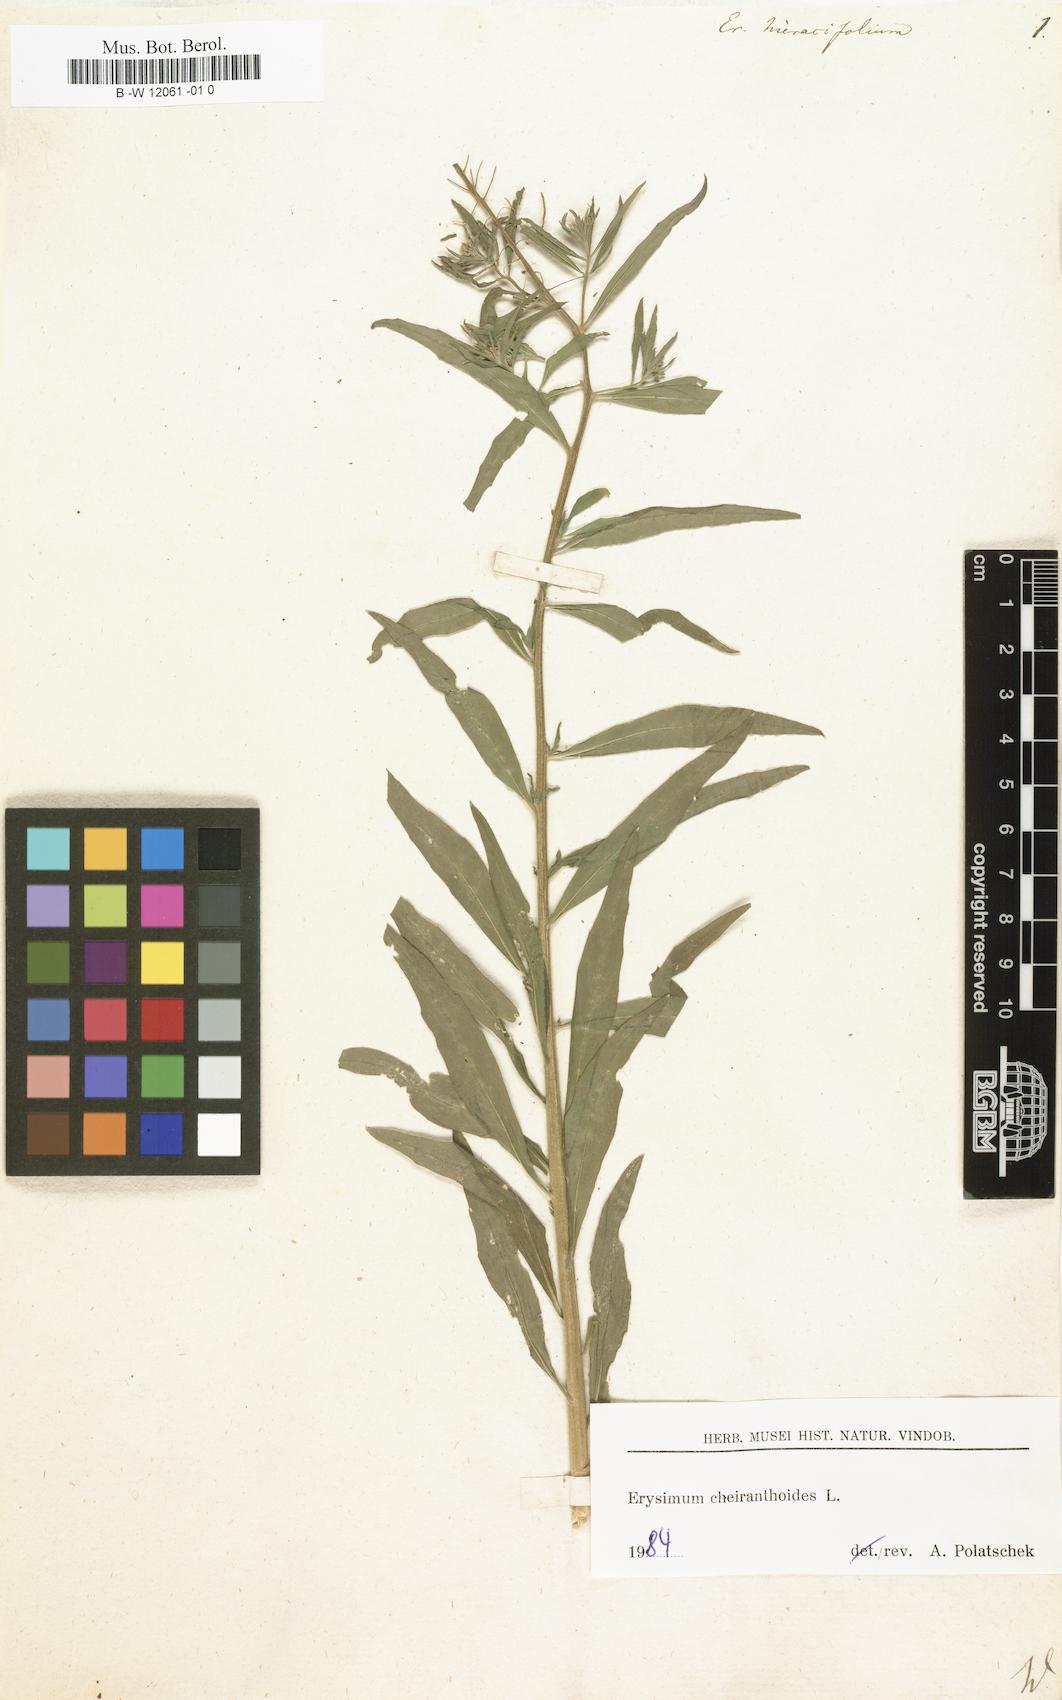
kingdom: Plantae
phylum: Tracheophyta
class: Magnoliopsida
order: Brassicales
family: Brassicaceae
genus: Erysimum
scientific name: Erysimum hieraciifolium
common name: European wallflower
